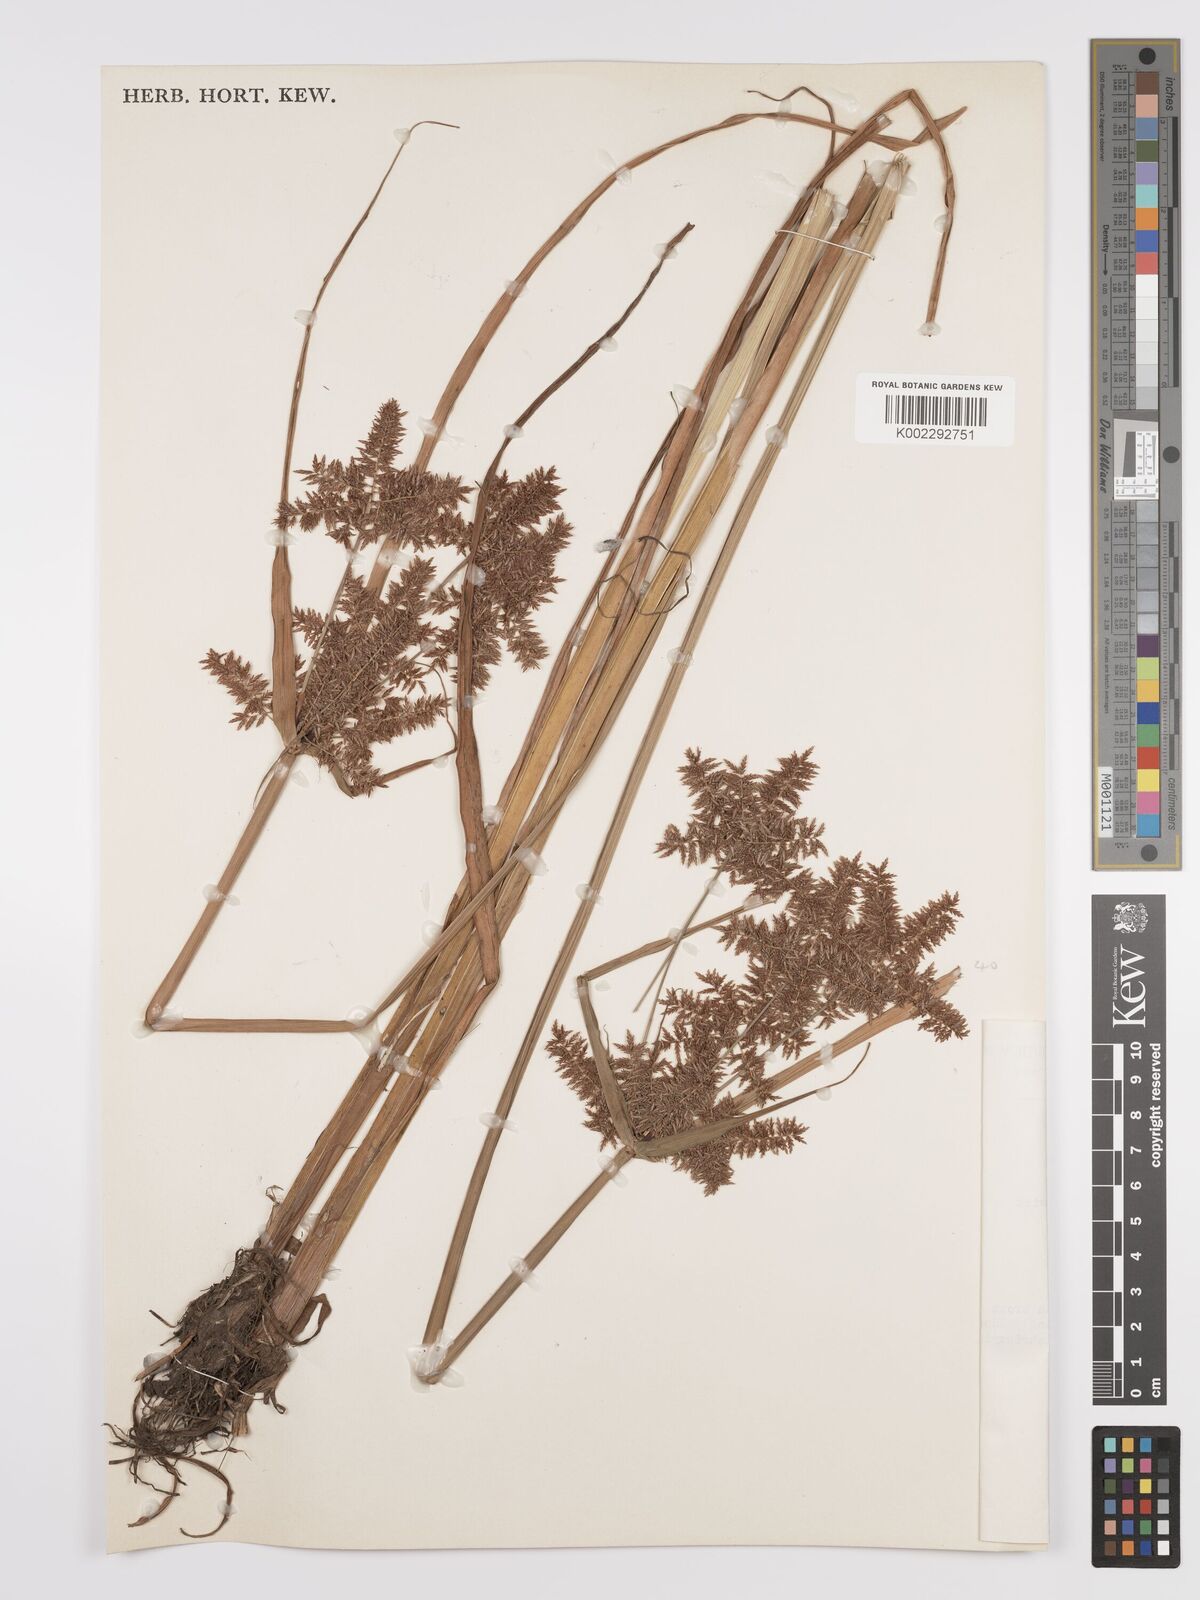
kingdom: Plantae
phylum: Tracheophyta
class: Liliopsida
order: Poales
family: Cyperaceae
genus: Cyperus
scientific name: Cyperus pilosus
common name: Fuzzy flatsedge
